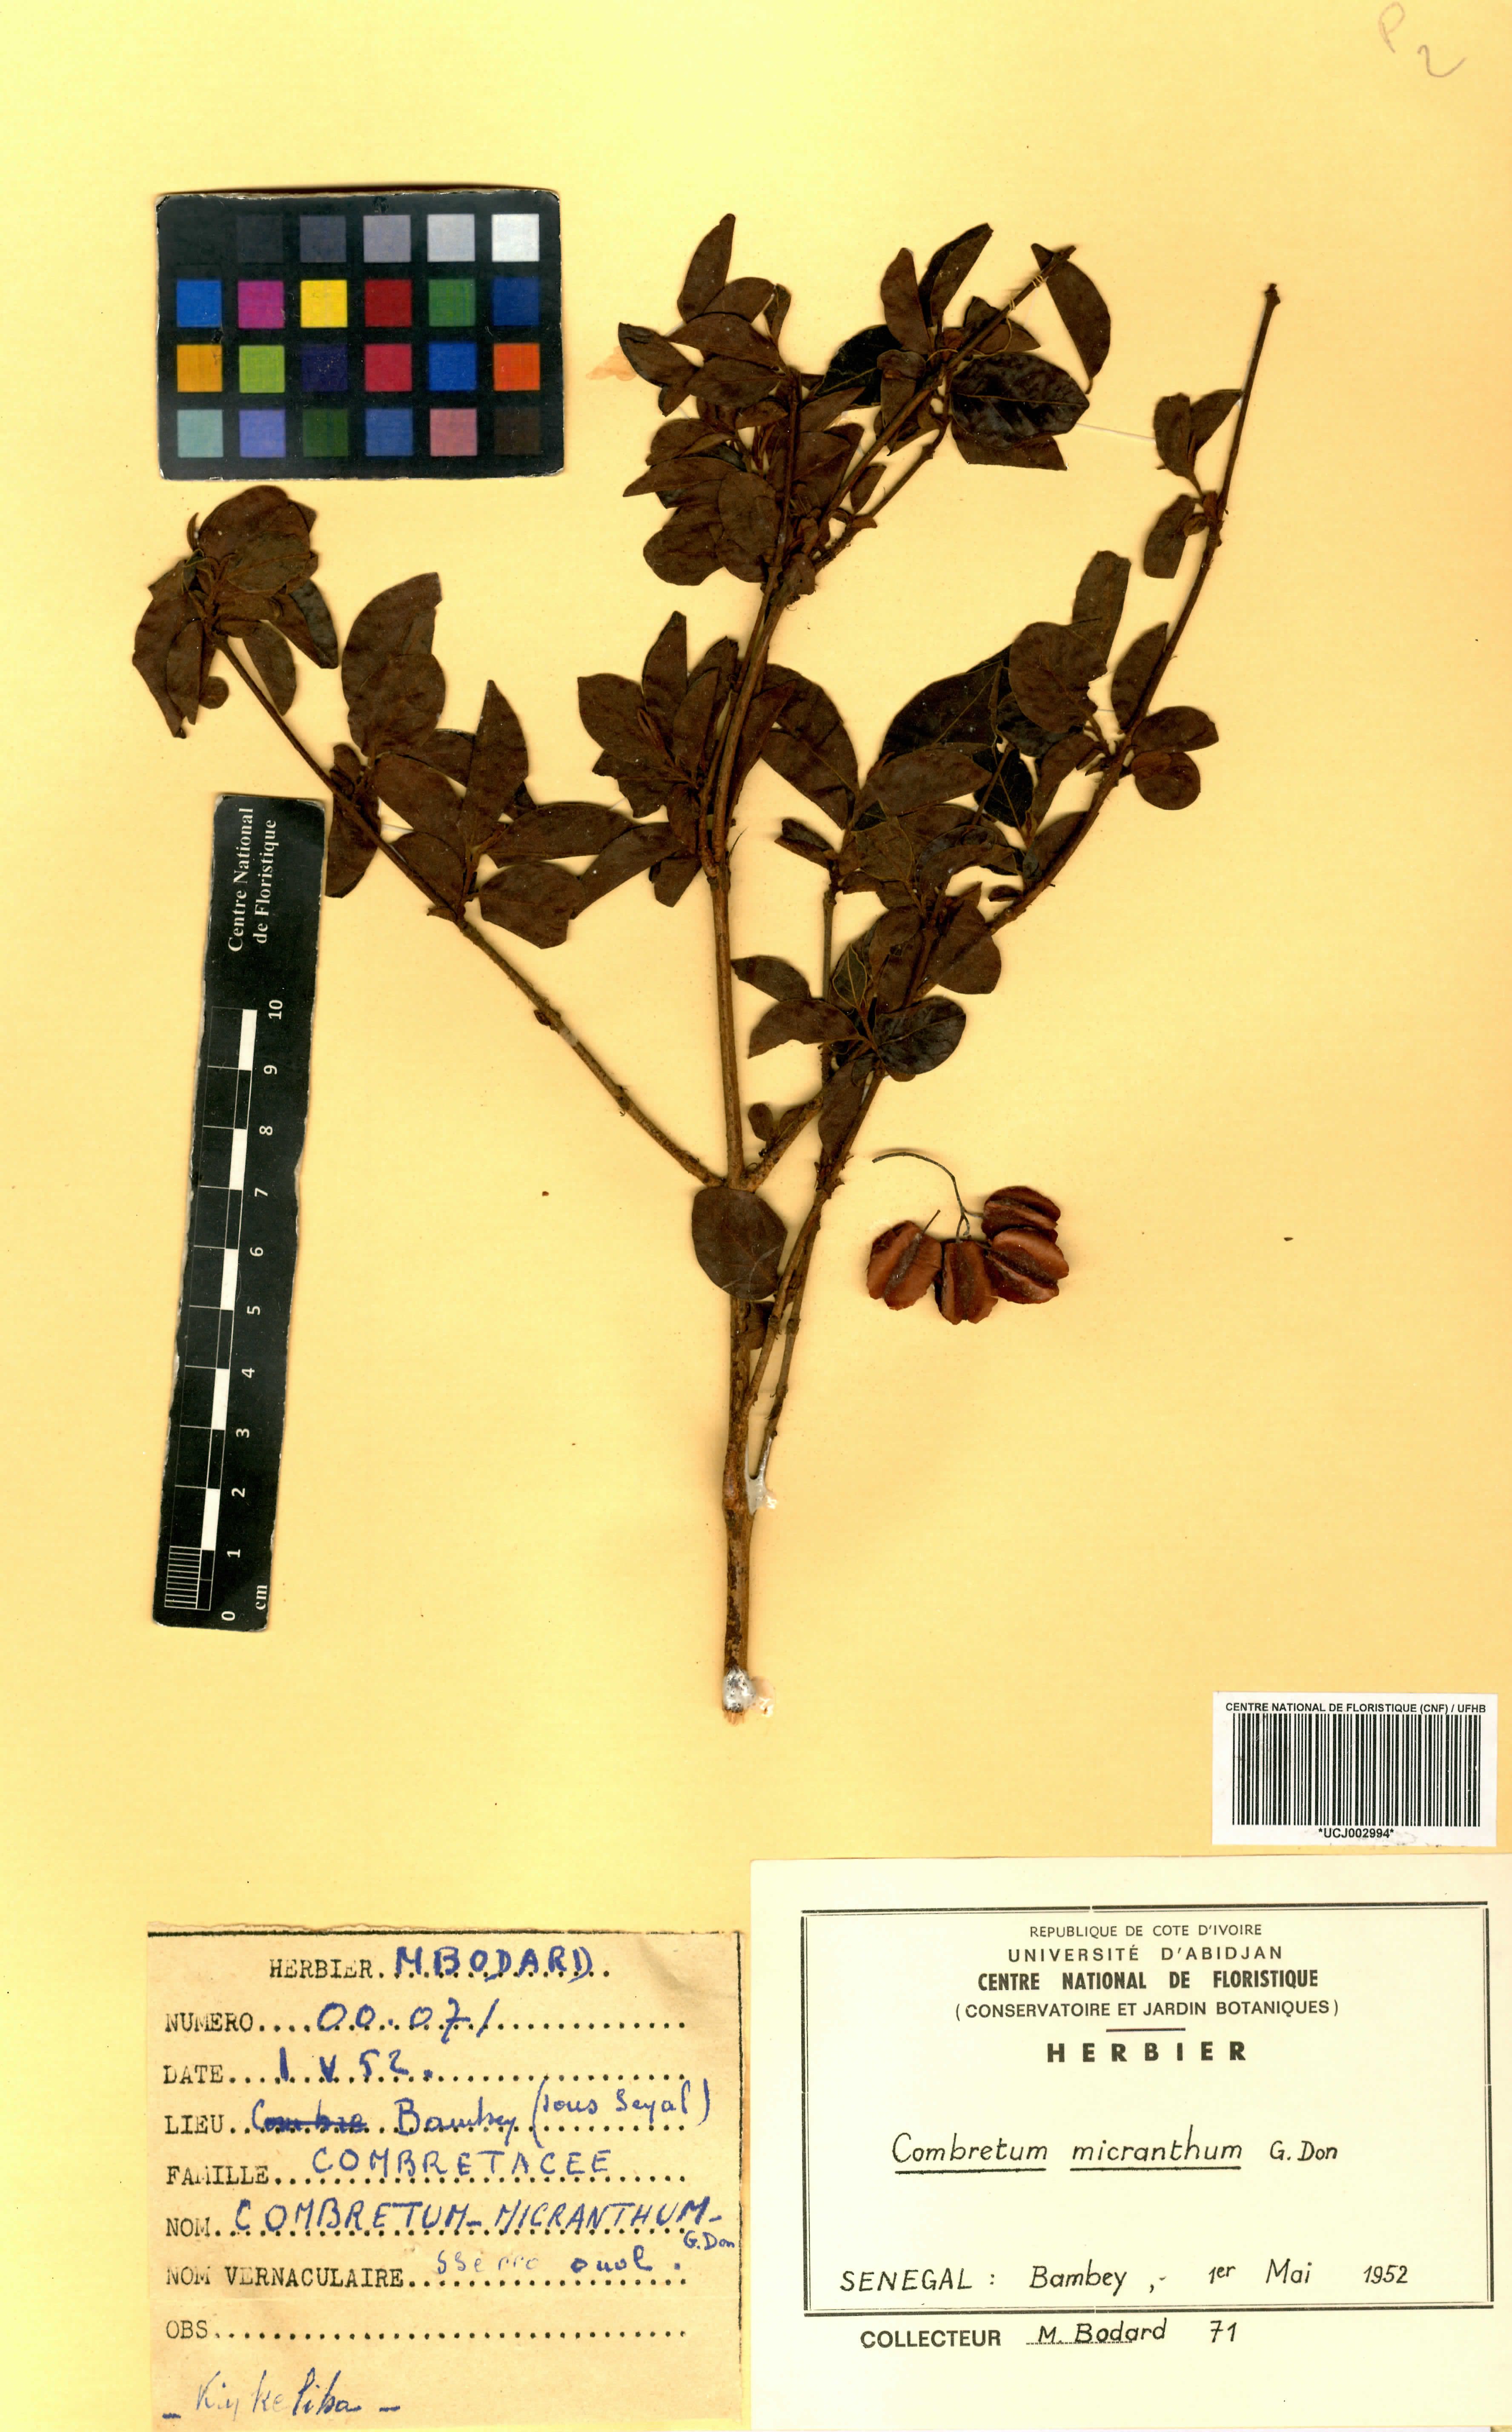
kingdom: Plantae
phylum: Tracheophyta
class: Magnoliopsida
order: Myrtales
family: Combretaceae
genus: Combretum
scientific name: Combretum micranthum
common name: Opium-antidote
